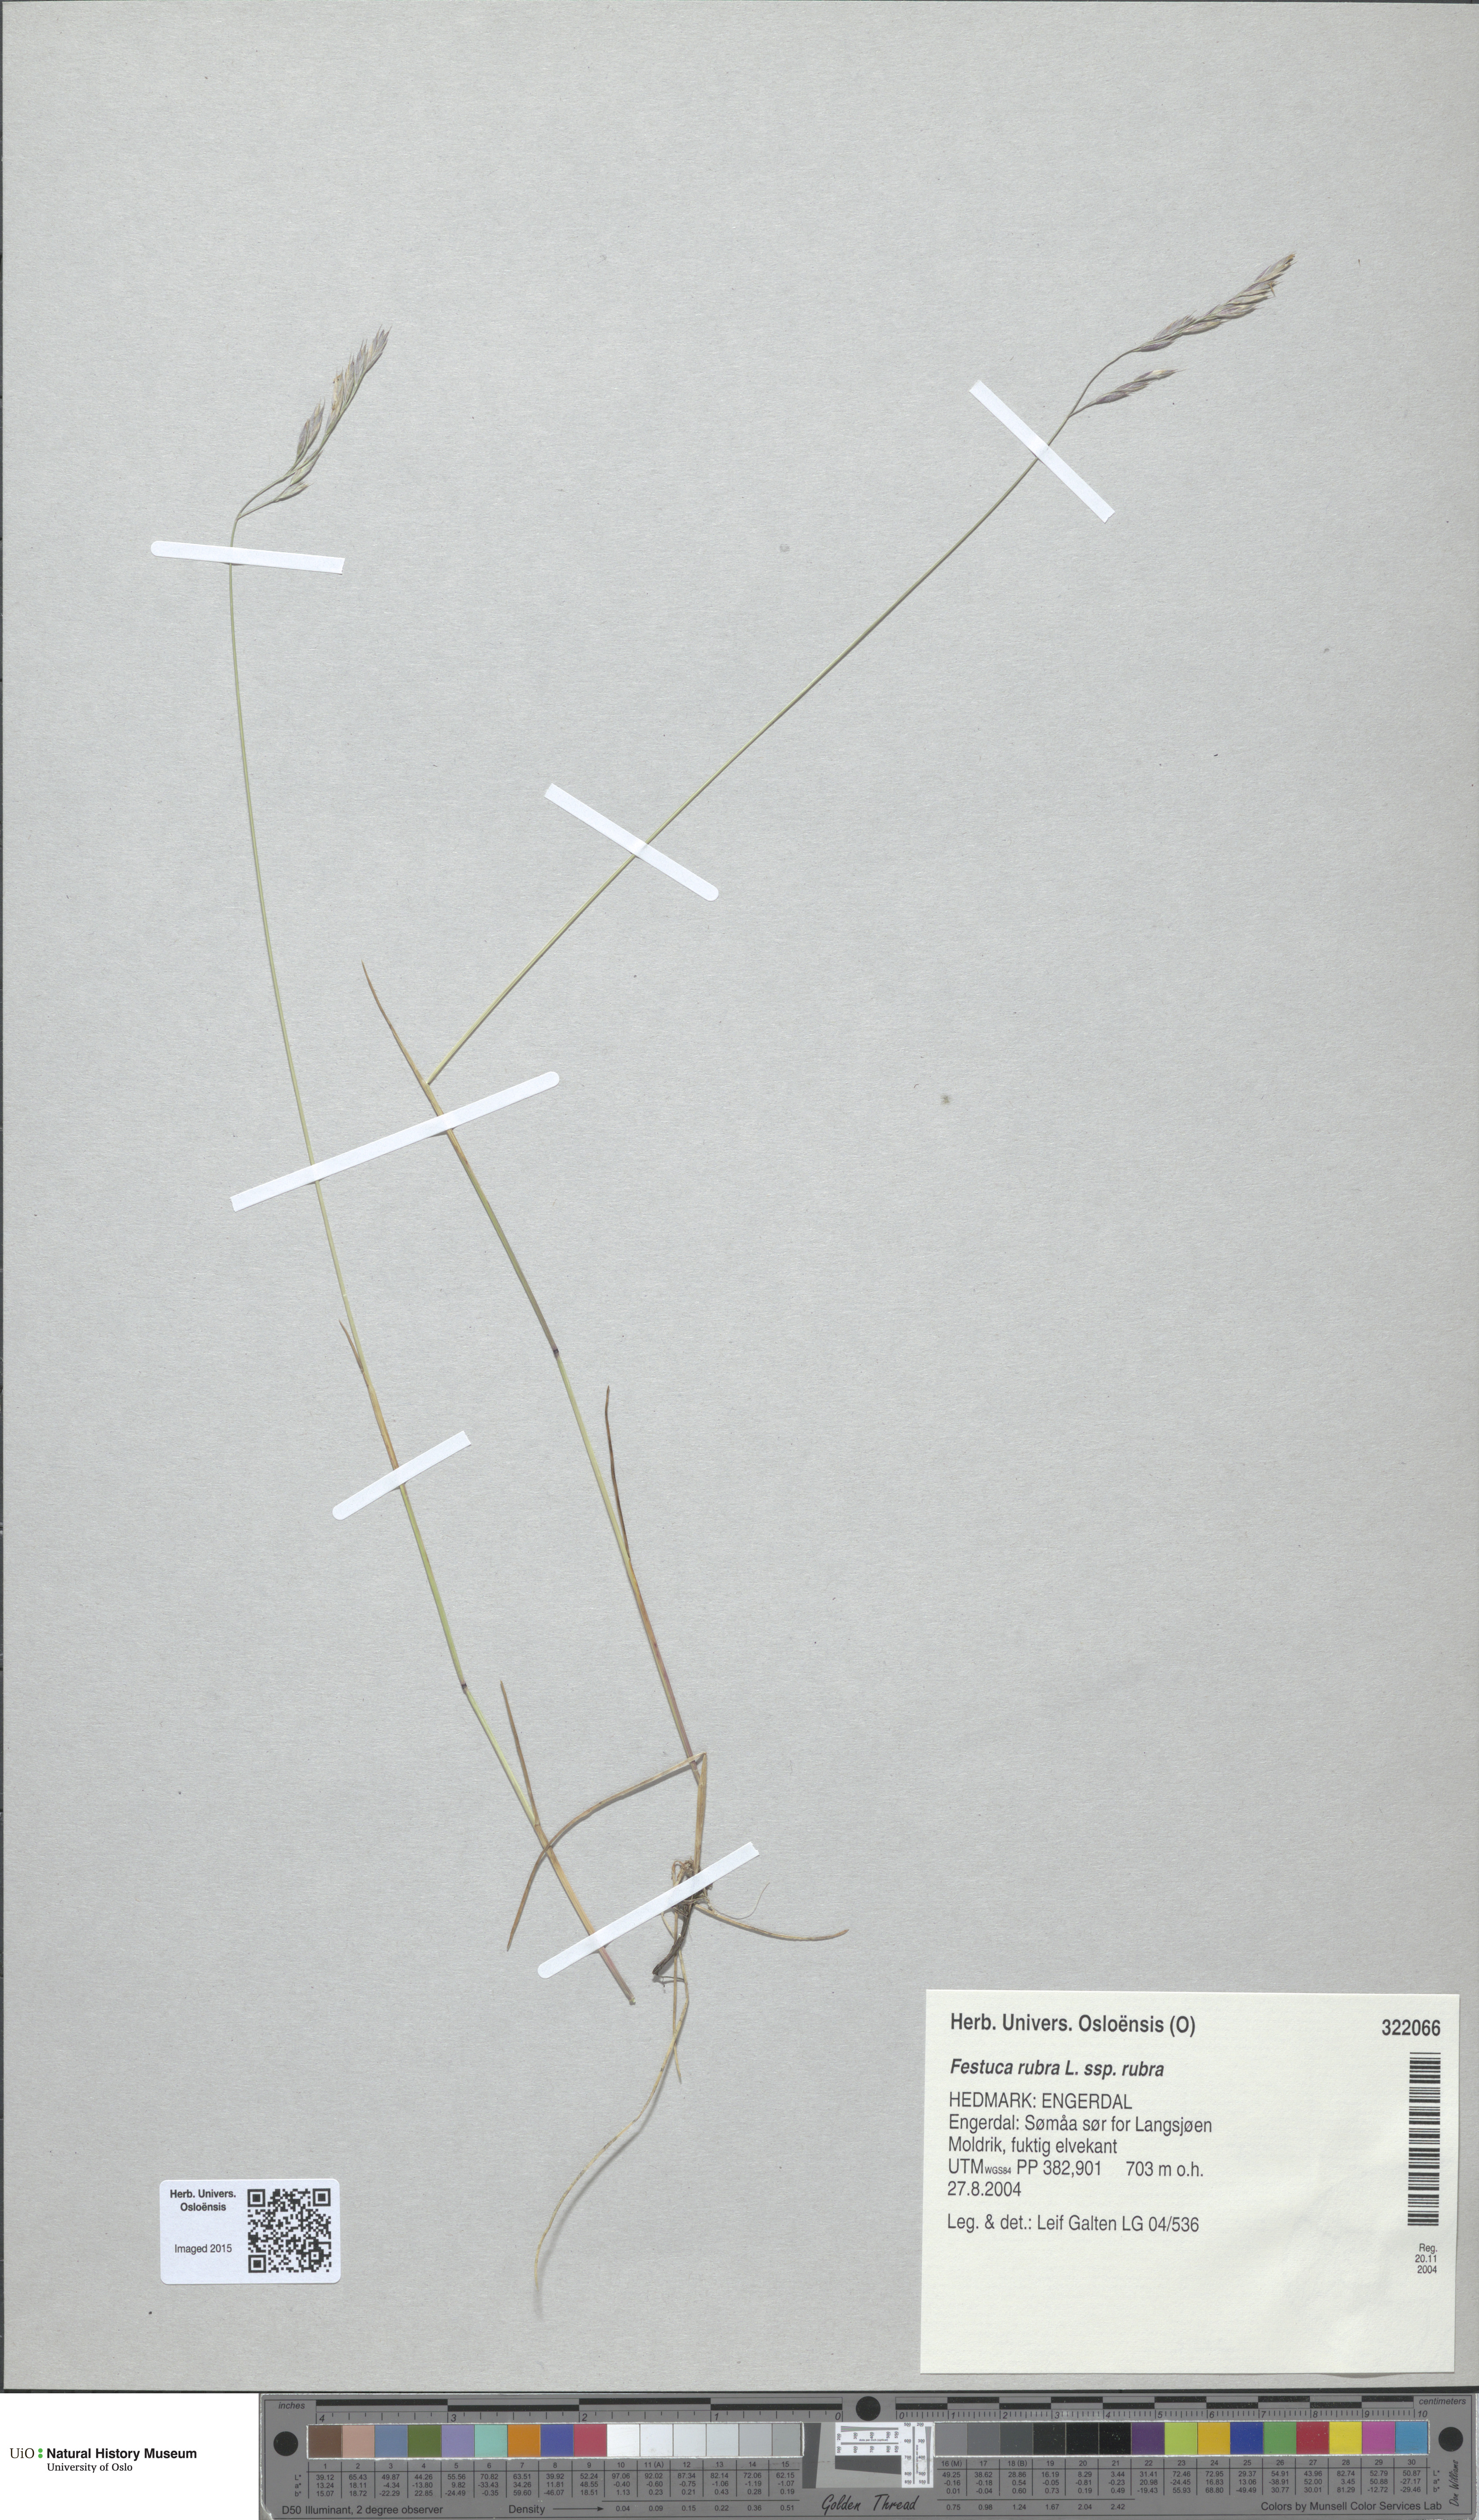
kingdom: Plantae
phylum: Tracheophyta
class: Liliopsida
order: Poales
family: Poaceae
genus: Festuca
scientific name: Festuca rubra
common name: Red fescue
